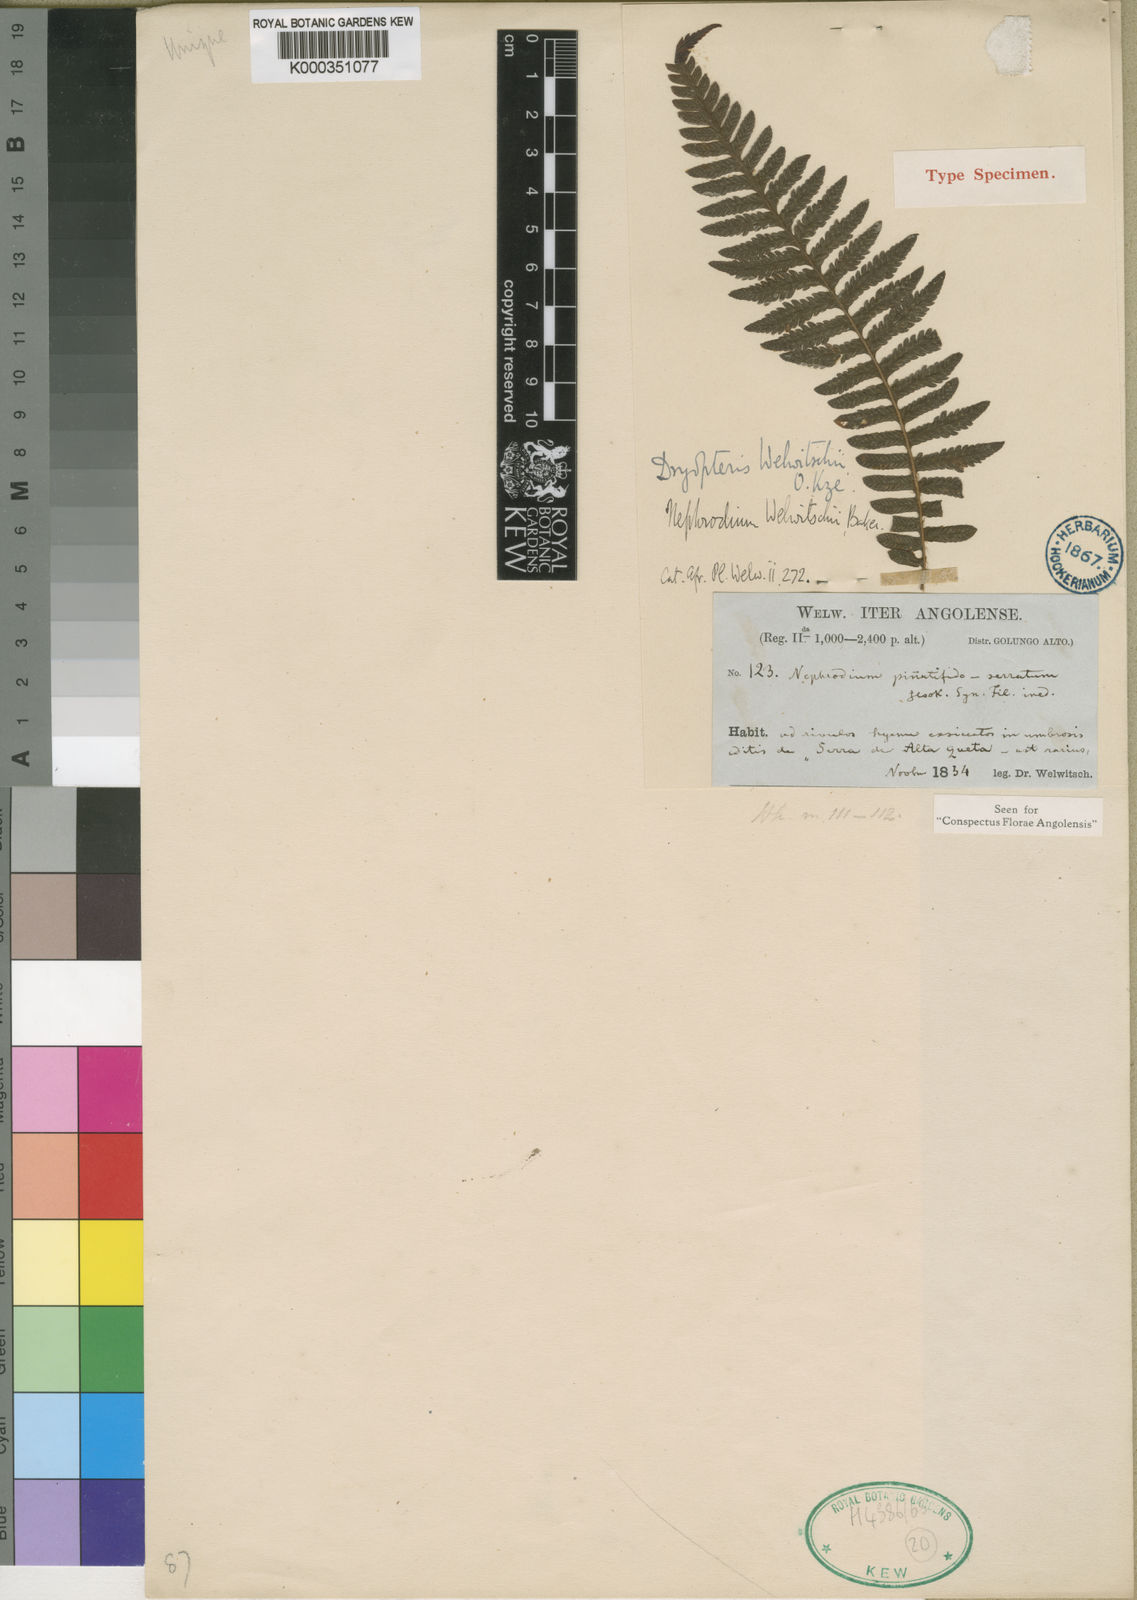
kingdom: Plantae
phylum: Tracheophyta
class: Polypodiopsida
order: Polypodiales
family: Dryopteridaceae
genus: Ctenitis
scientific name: Ctenitis cirrhosa
